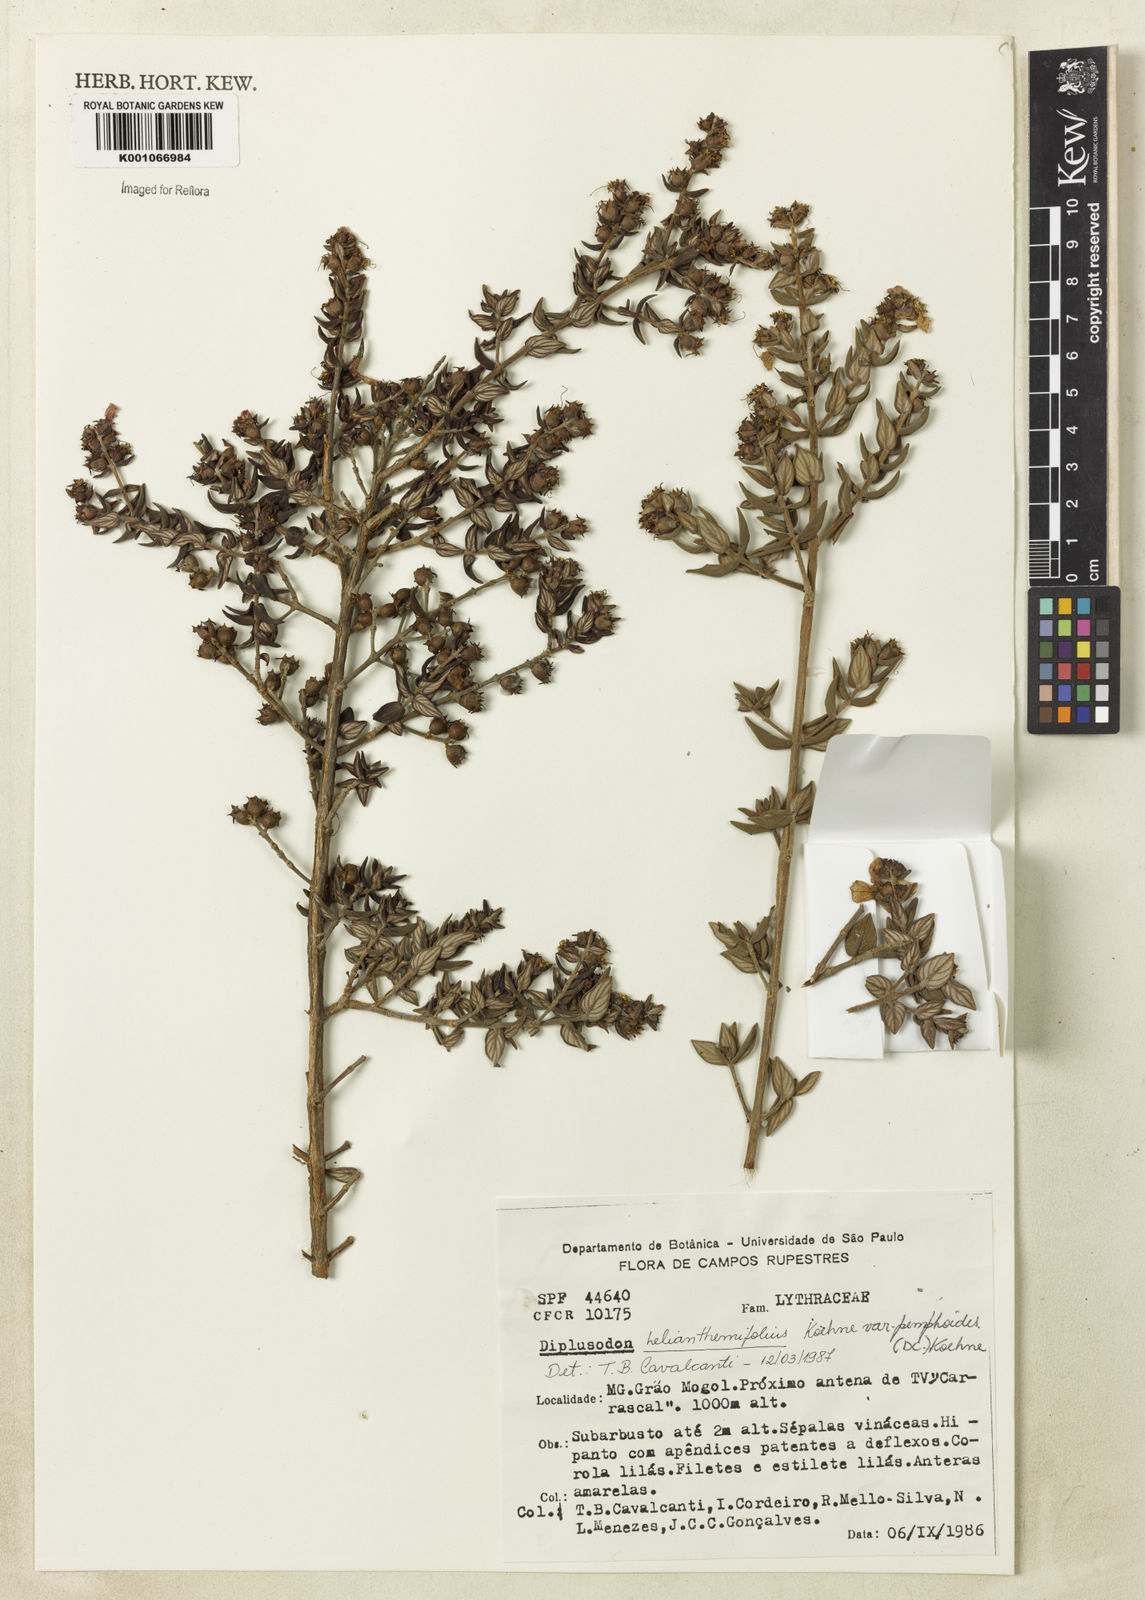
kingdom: Plantae
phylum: Tracheophyta
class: Magnoliopsida
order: Myrtales
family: Lythraceae
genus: Diplusodon
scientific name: Diplusodon helianthemifolius
